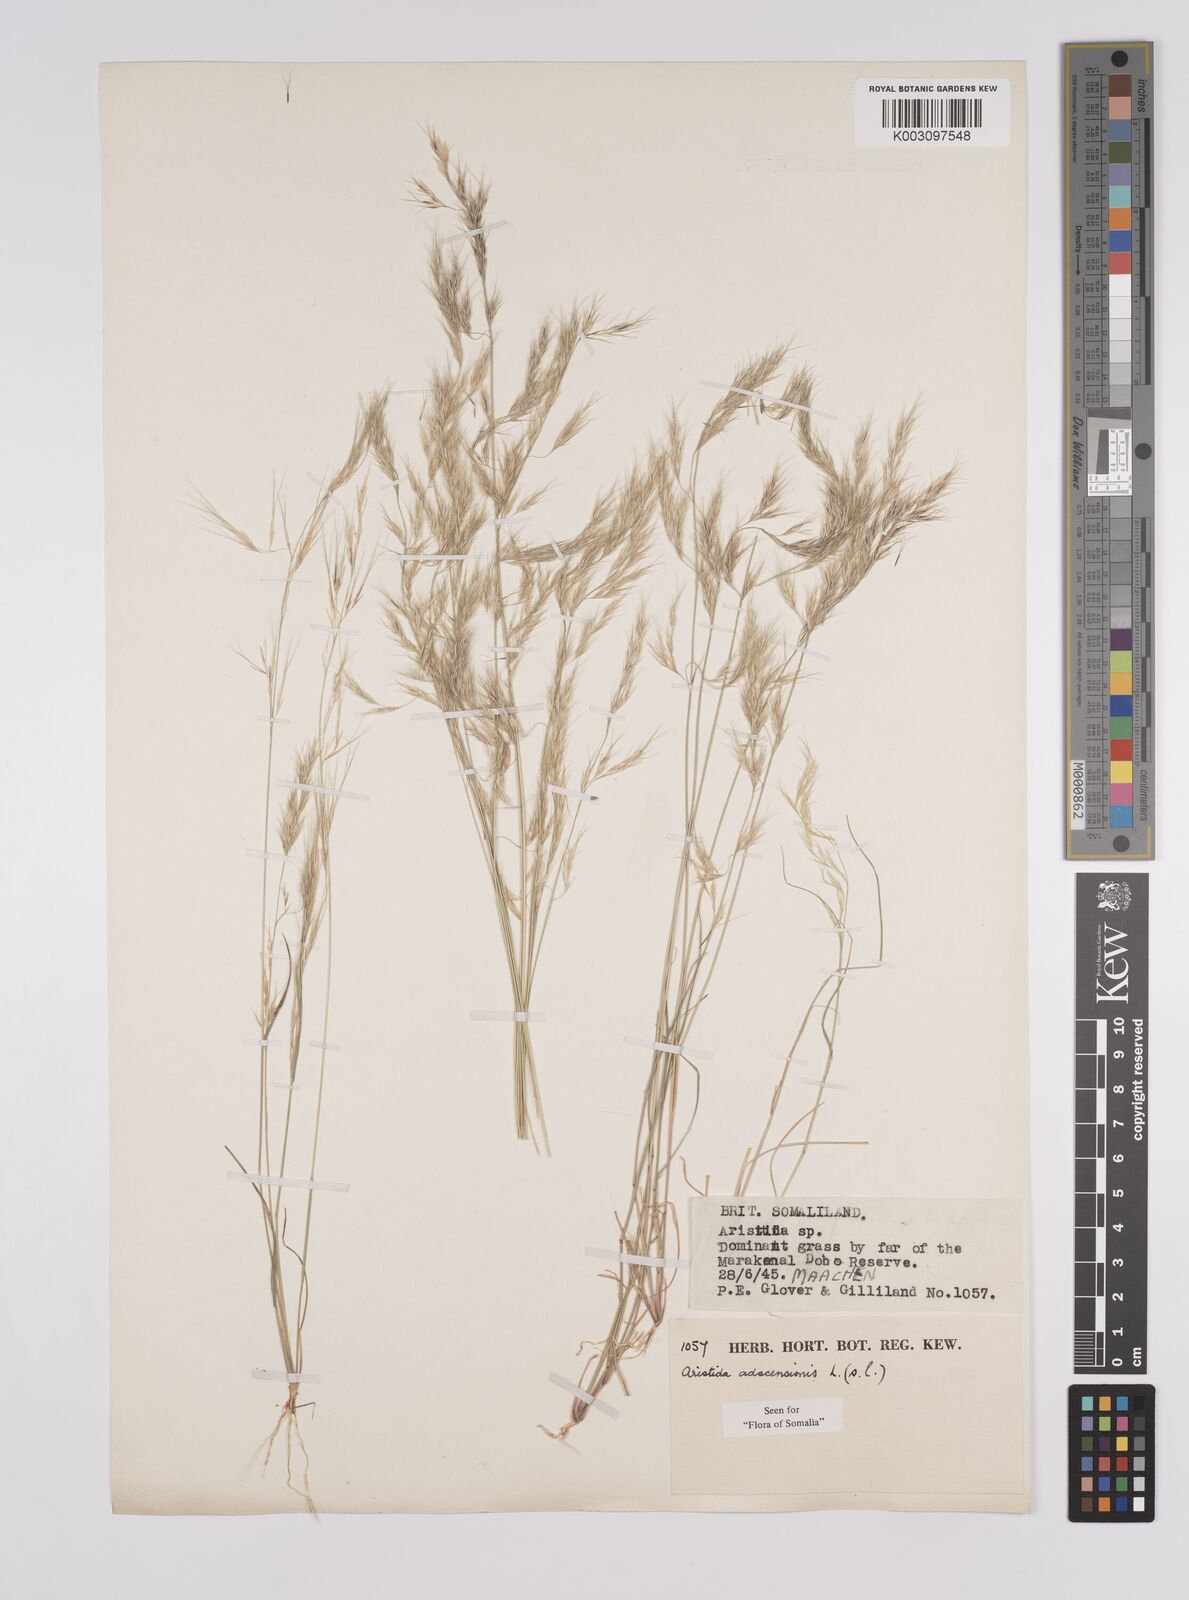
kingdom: Plantae
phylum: Tracheophyta
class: Liliopsida
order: Poales
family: Poaceae
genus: Aristida
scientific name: Aristida adscensionis
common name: Sixweeks threeawn
